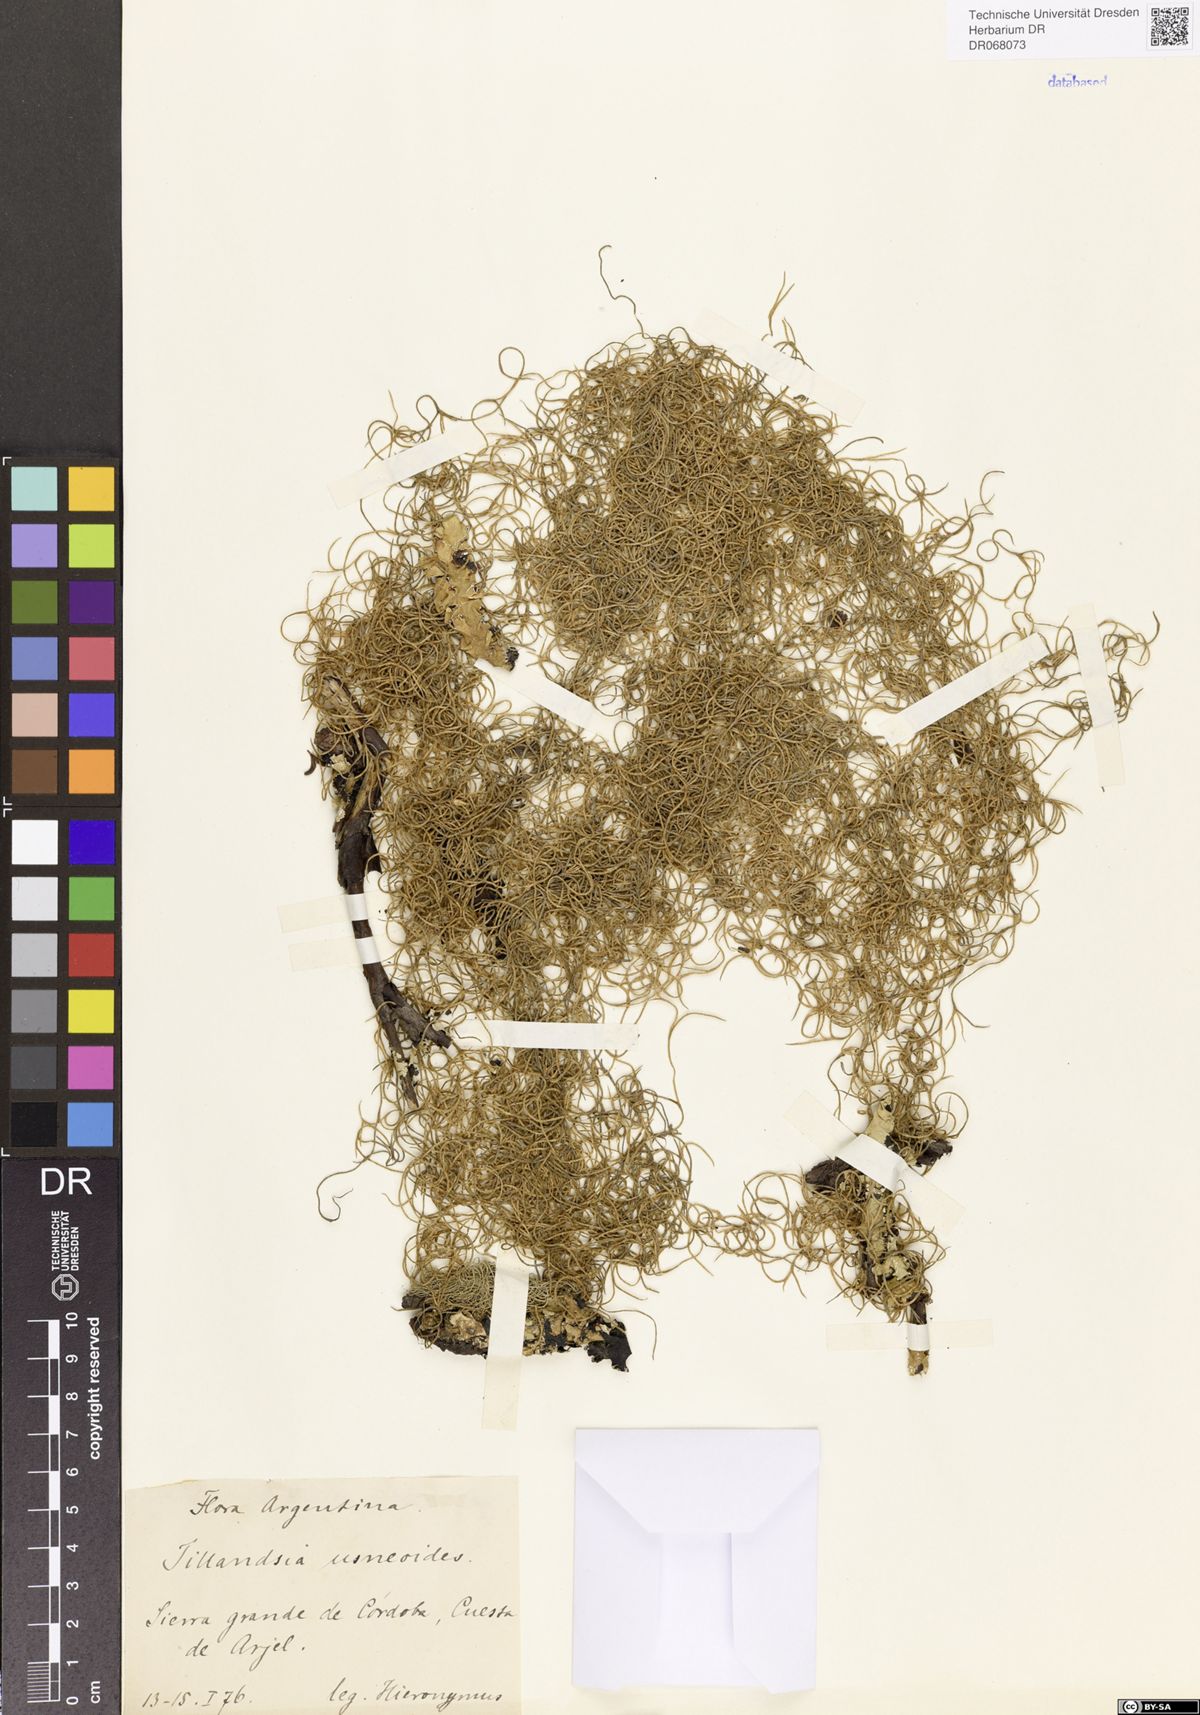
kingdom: Plantae
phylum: Tracheophyta
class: Liliopsida
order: Poales
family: Bromeliaceae
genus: Tillandsia
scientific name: Tillandsia usneoides
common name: Spanish moss
